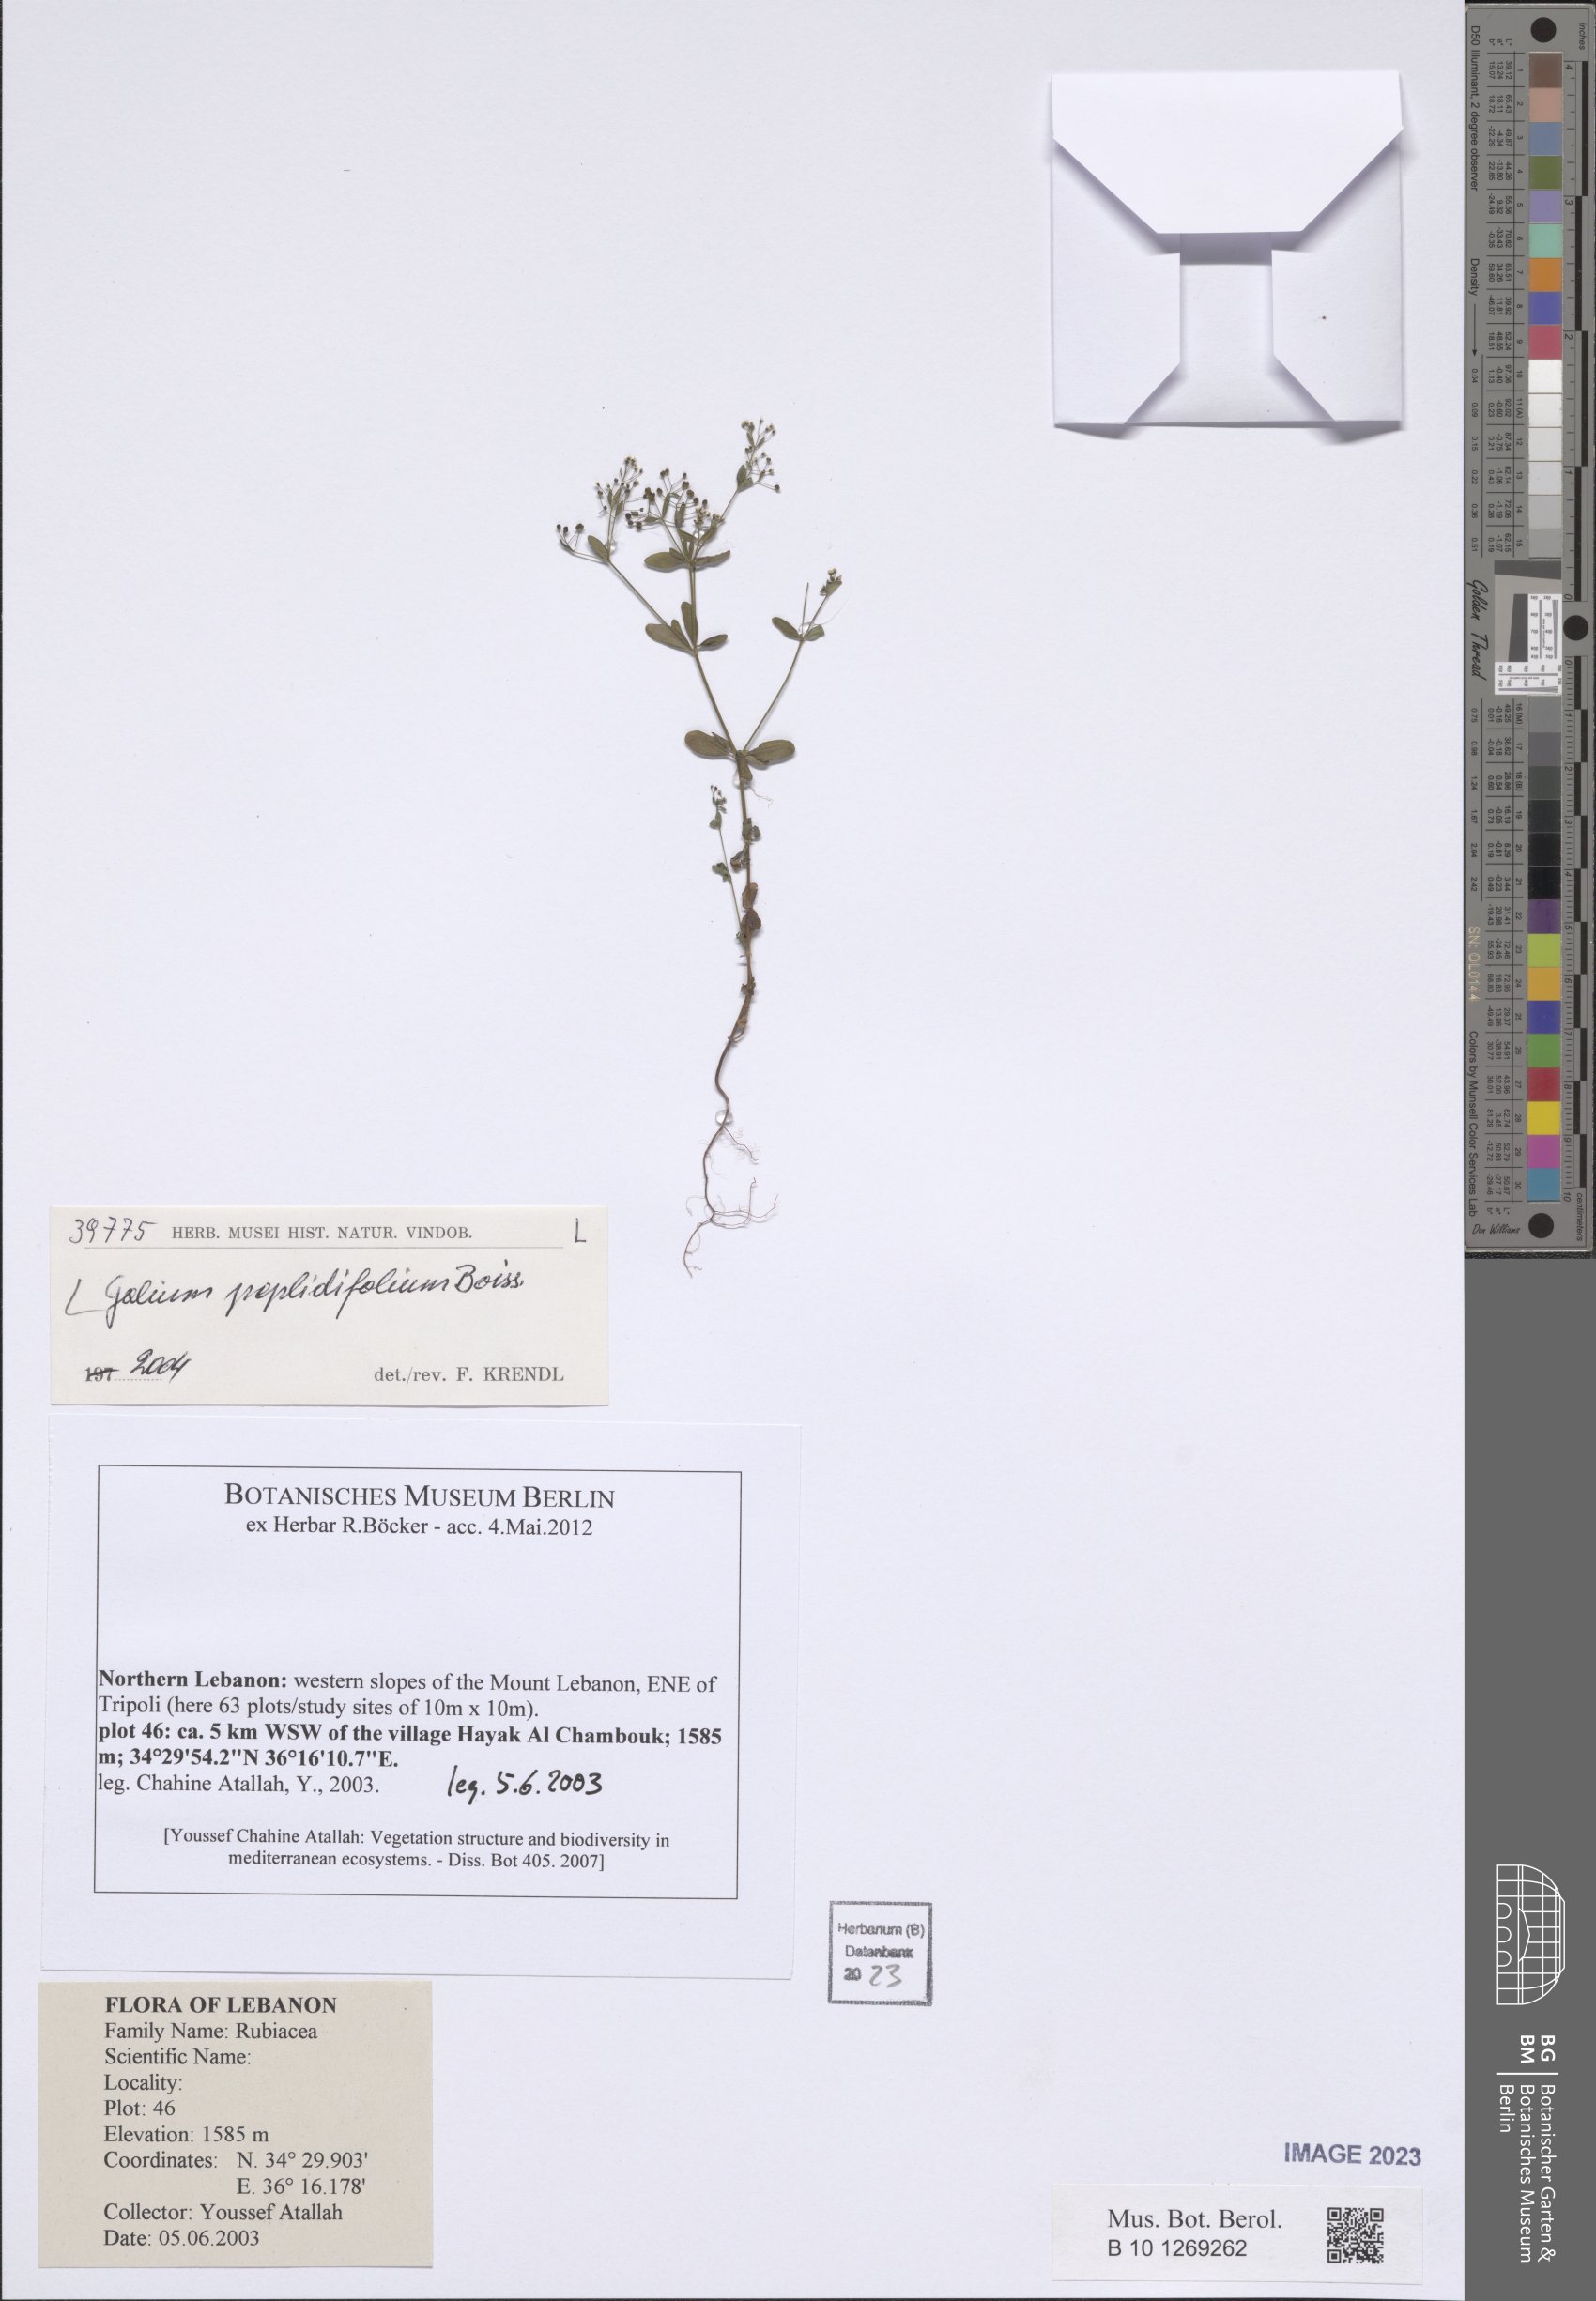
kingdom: Plantae
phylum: Tracheophyta
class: Magnoliopsida
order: Gentianales
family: Rubiaceae
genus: Galium
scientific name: Galium peplidifolium
